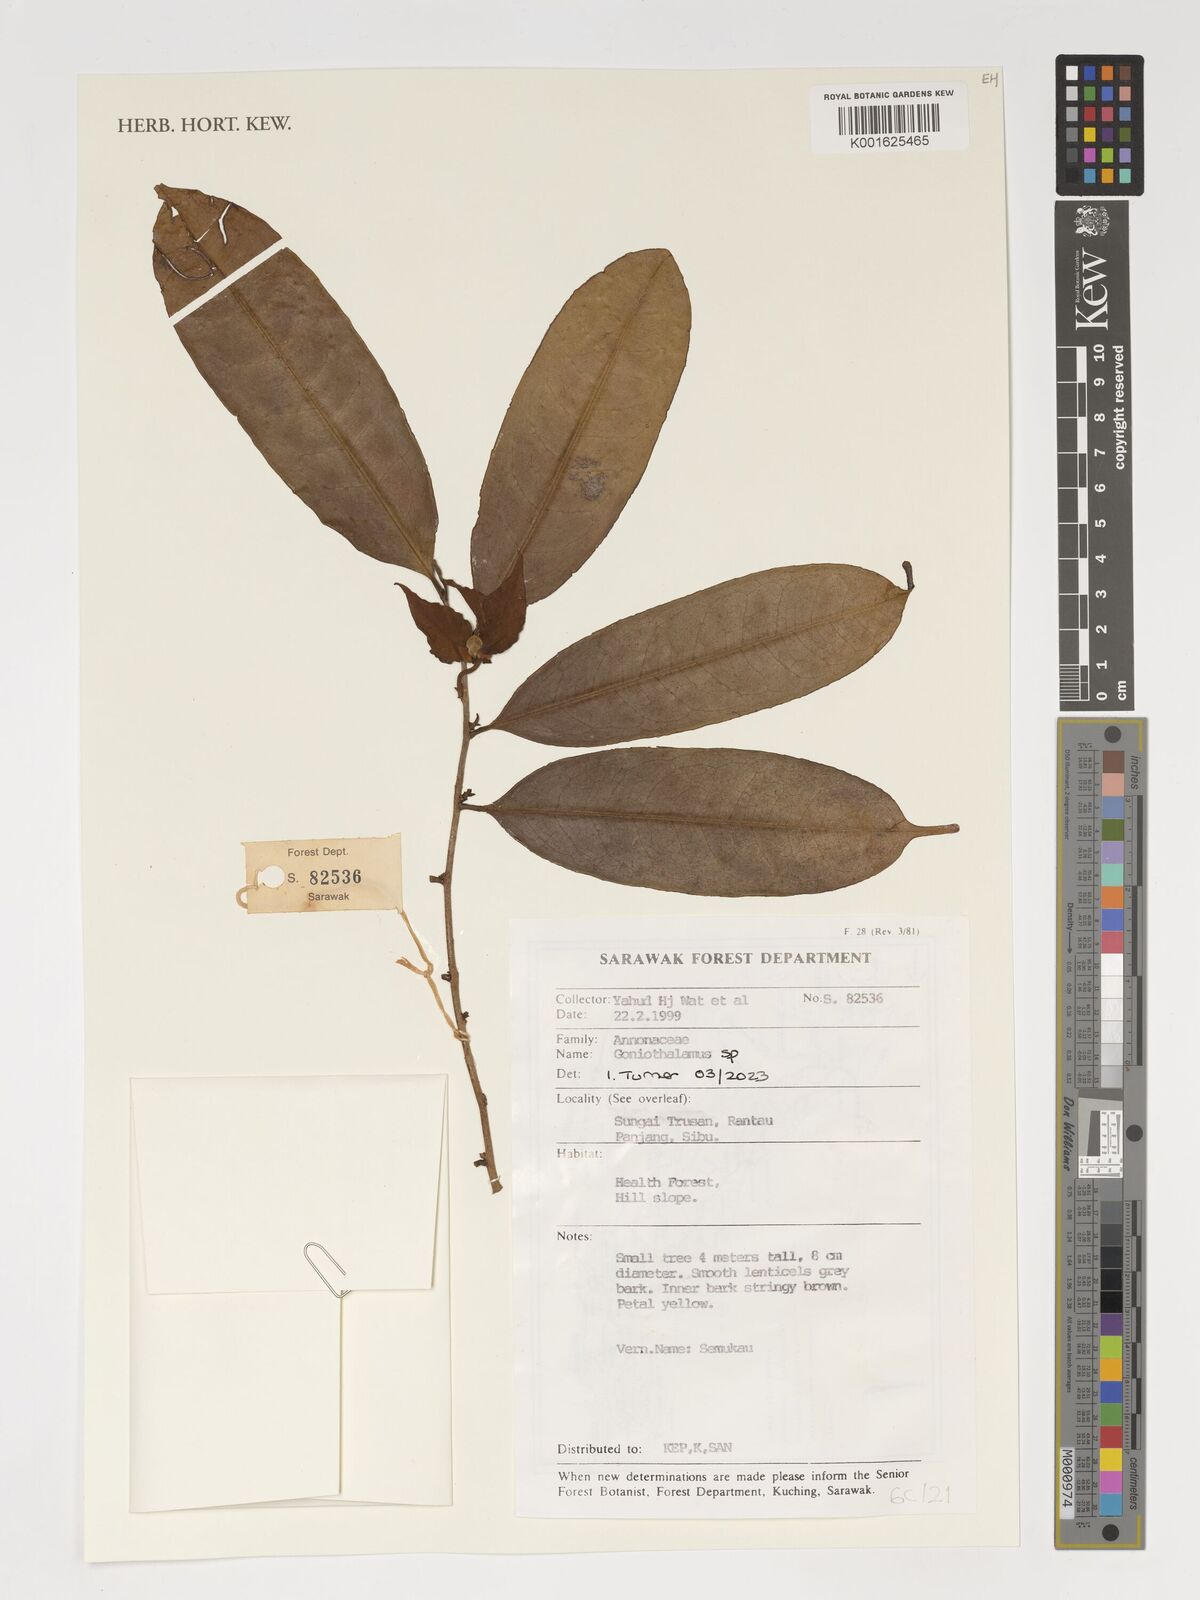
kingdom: Plantae
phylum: Tracheophyta
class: Magnoliopsida
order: Magnoliales
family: Annonaceae
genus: Goniothalamus
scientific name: Goniothalamus
